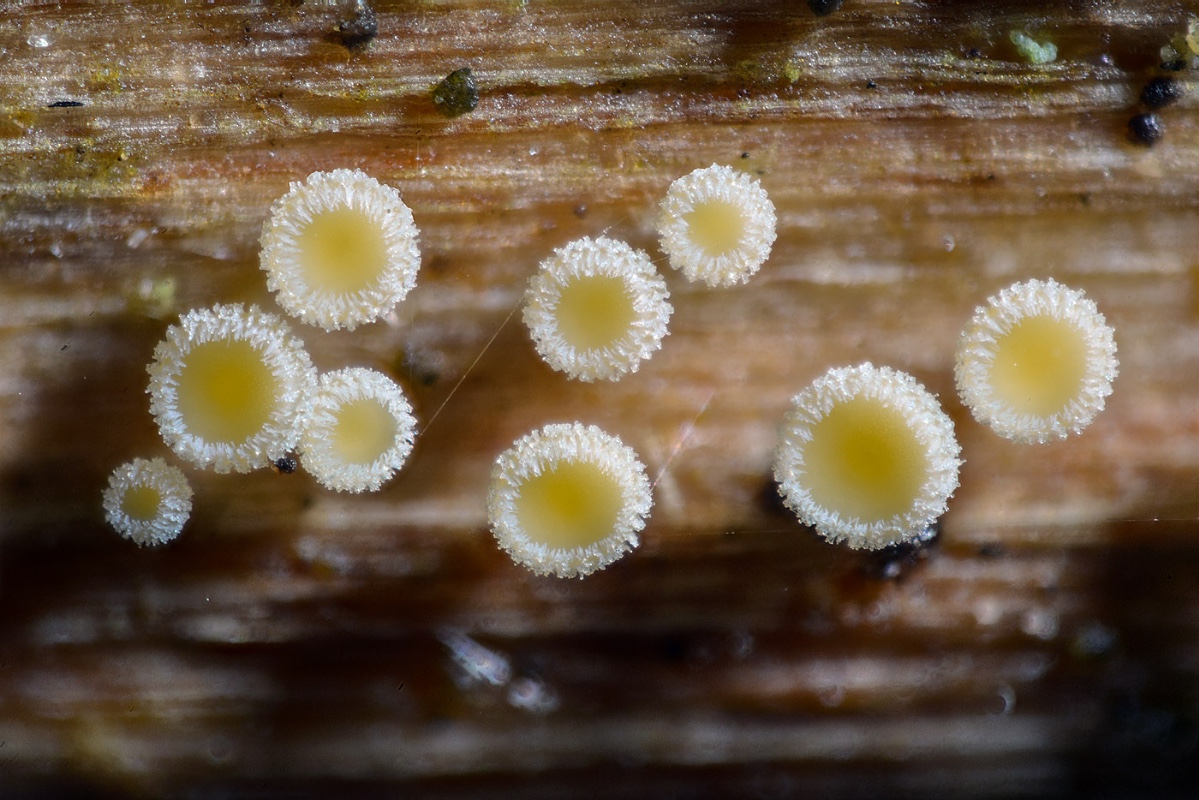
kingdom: Fungi
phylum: Ascomycota
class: Leotiomycetes
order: Helotiales
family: Lachnaceae
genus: Capitotricha
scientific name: Capitotricha rubi
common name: orangegul frynseskive
